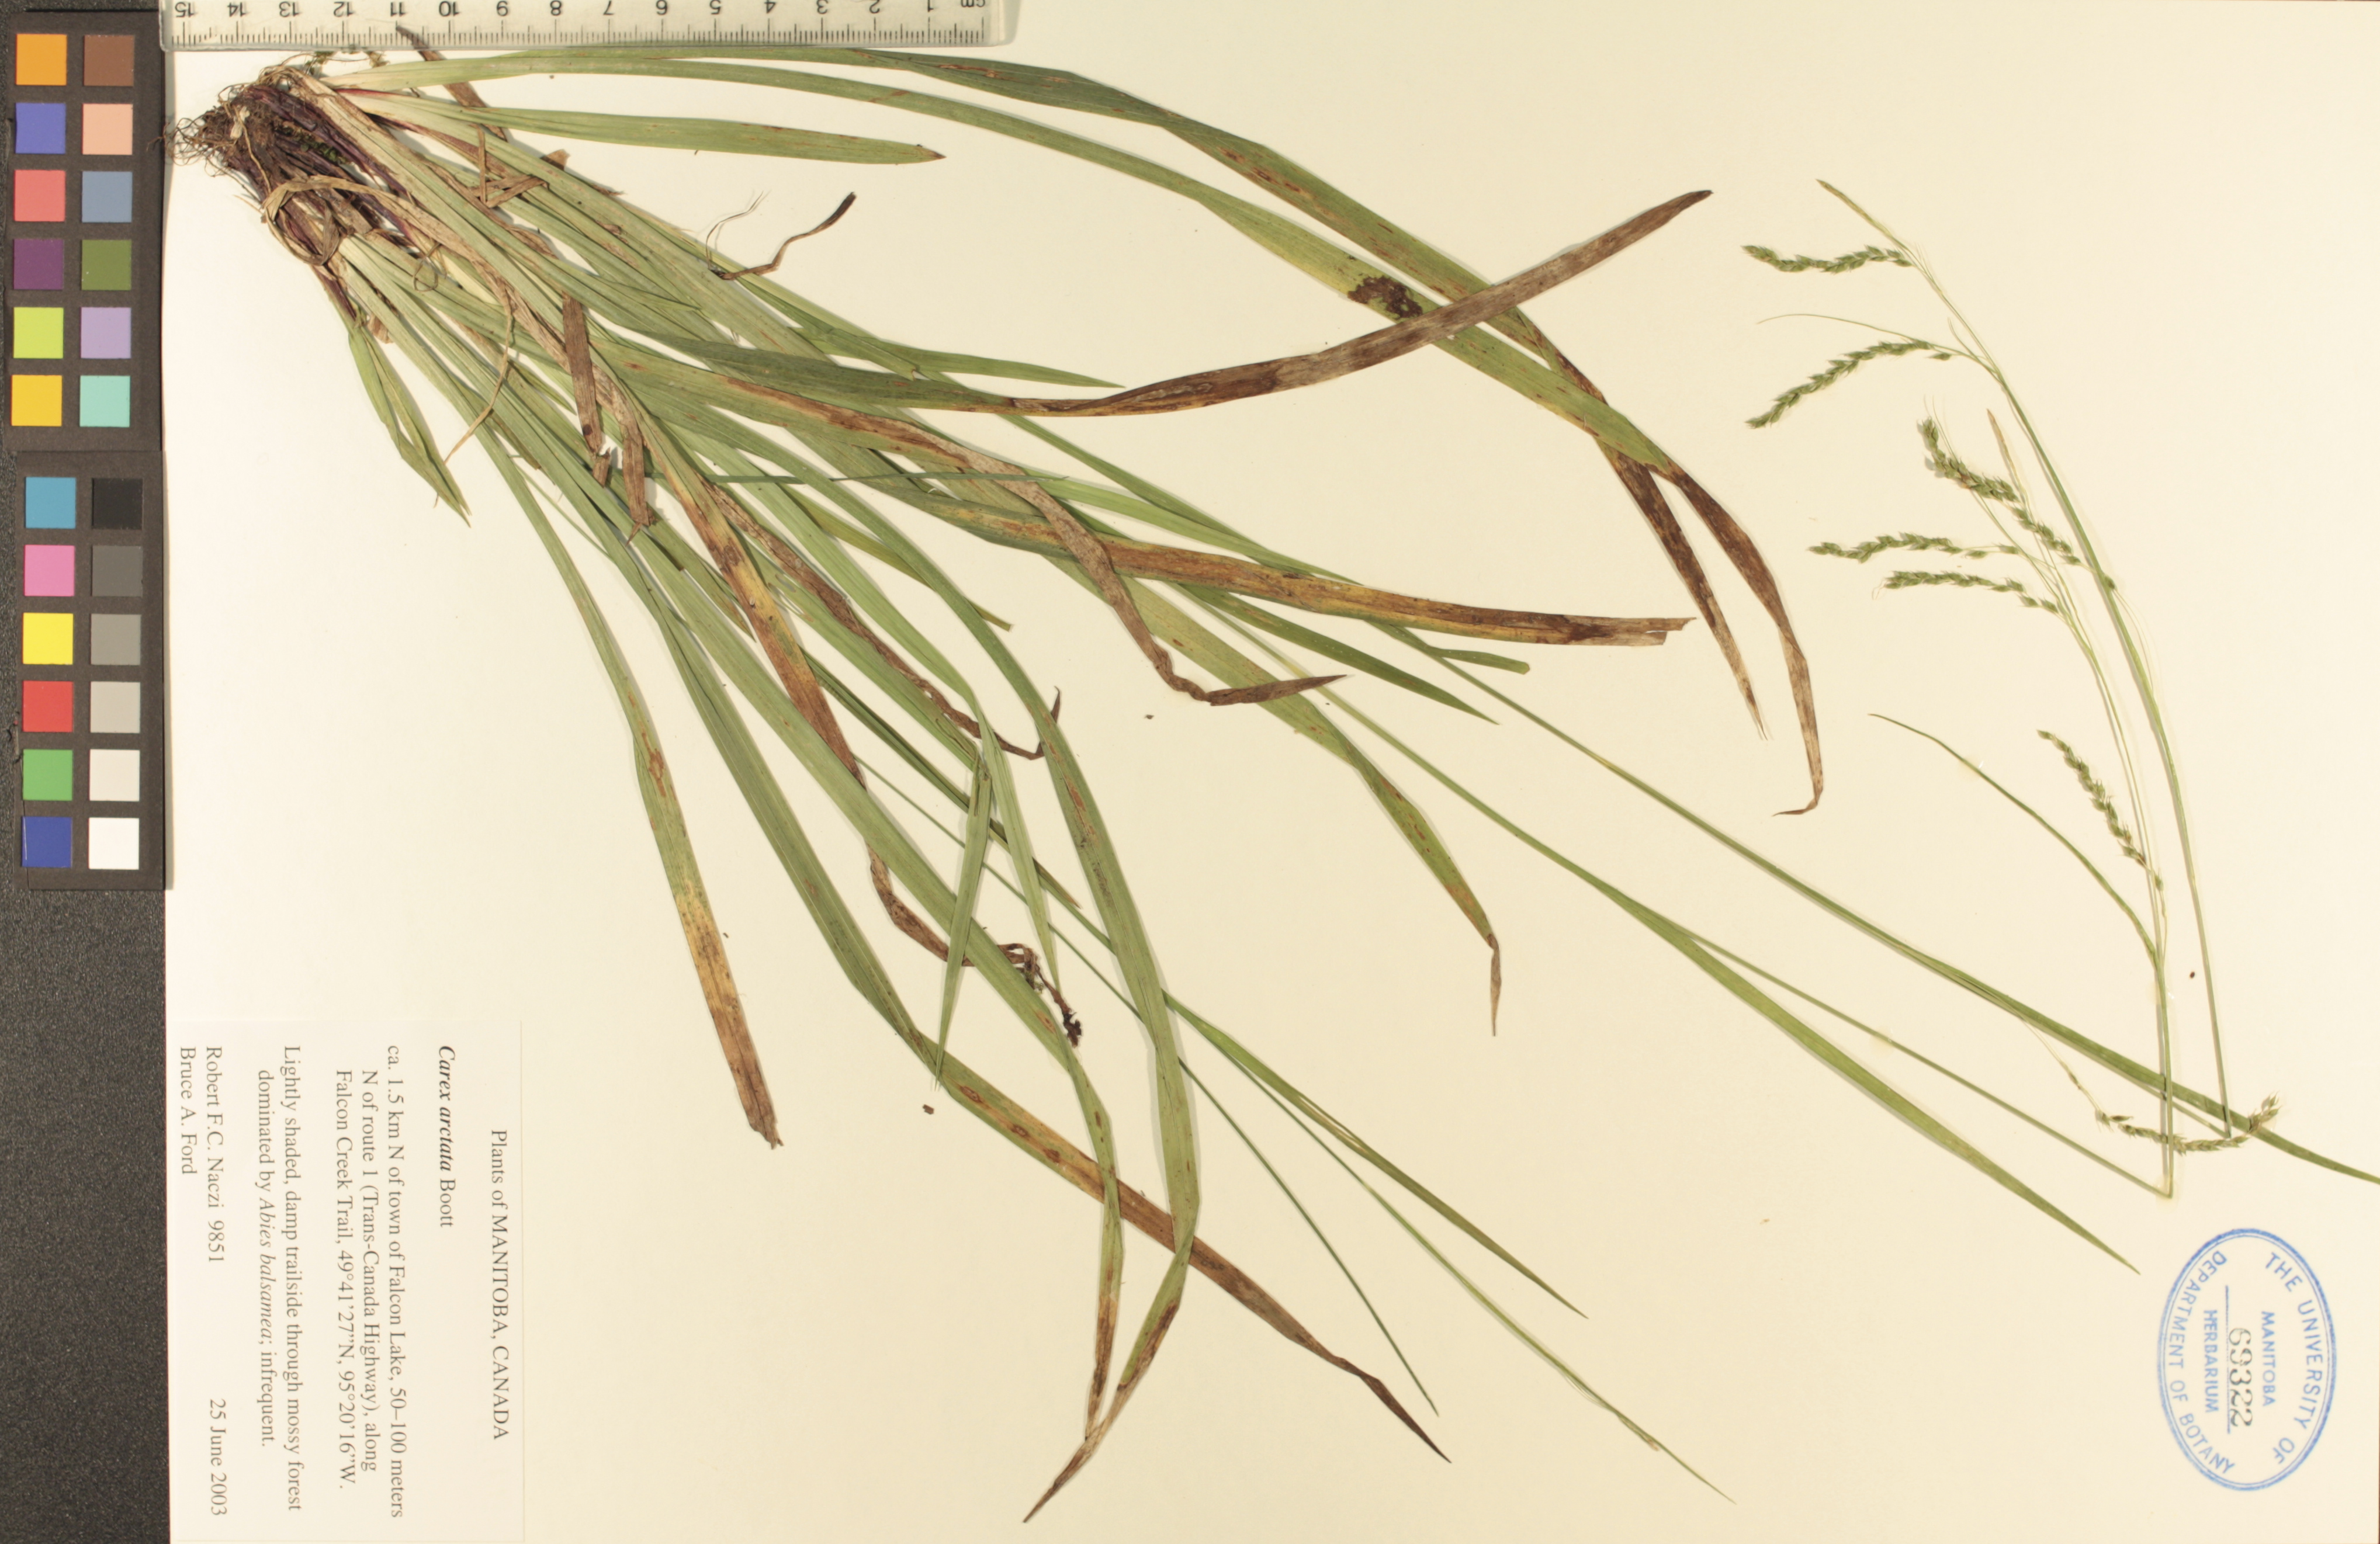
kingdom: Plantae
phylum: Tracheophyta
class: Liliopsida
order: Poales
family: Cyperaceae
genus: Carex
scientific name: Carex arctata
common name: Black sedge
